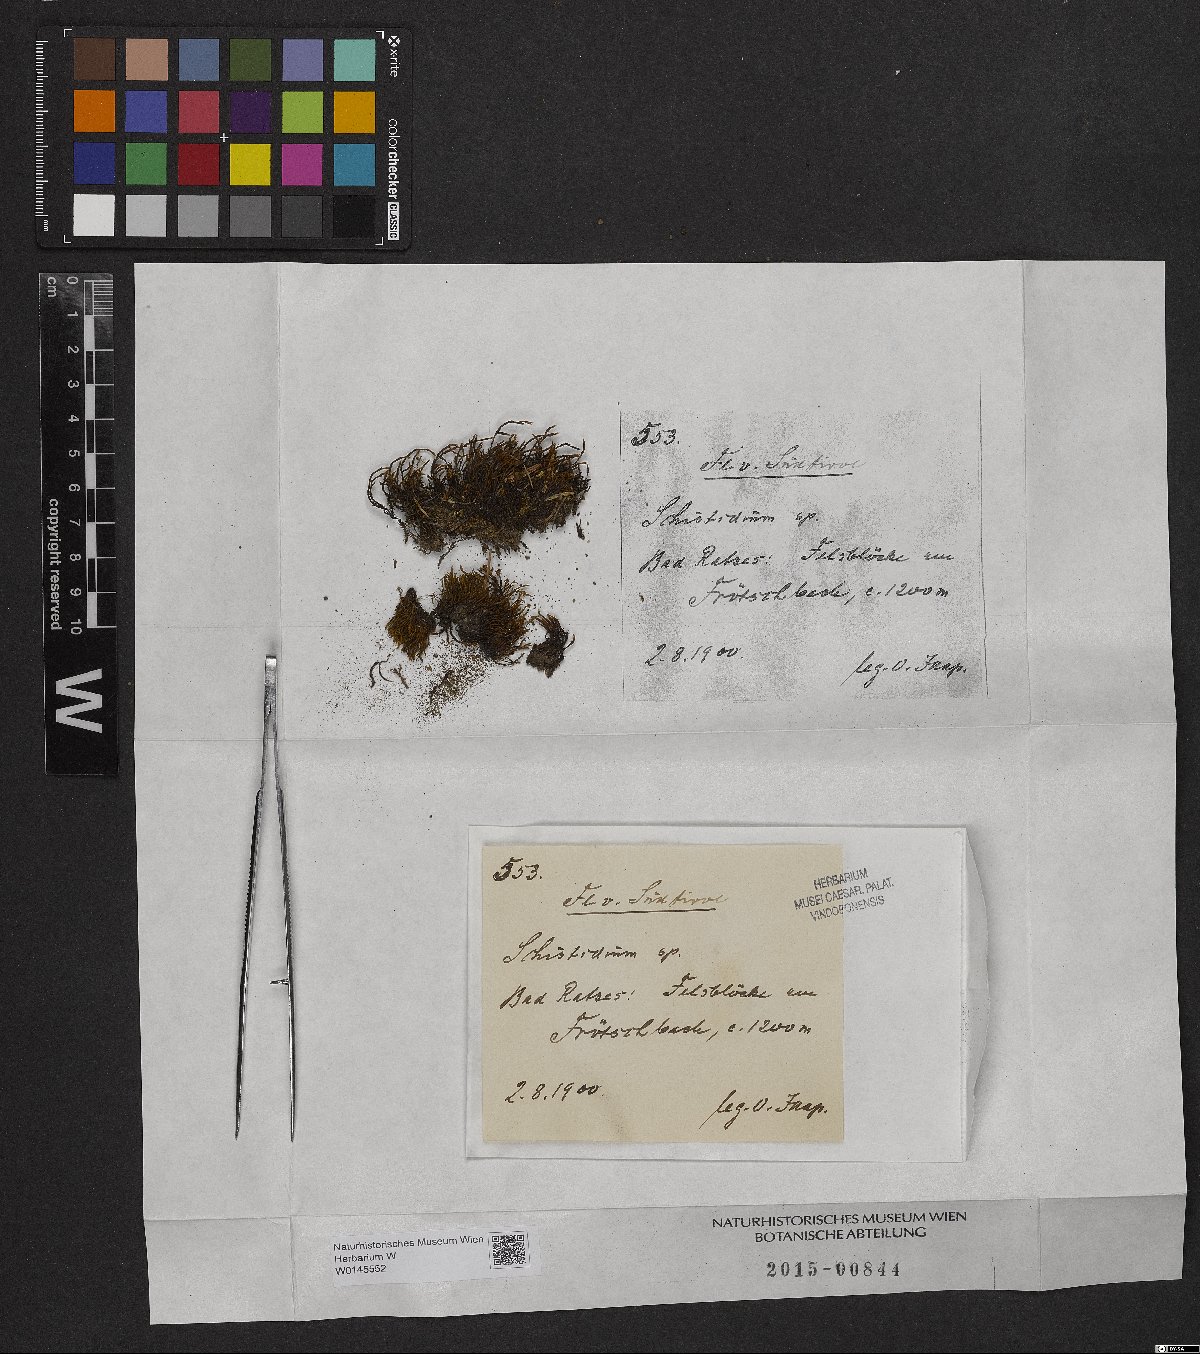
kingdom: Plantae
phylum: Bryophyta
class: Bryopsida
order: Grimmiales
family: Grimmiaceae
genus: Schistidium
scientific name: Schistidium
